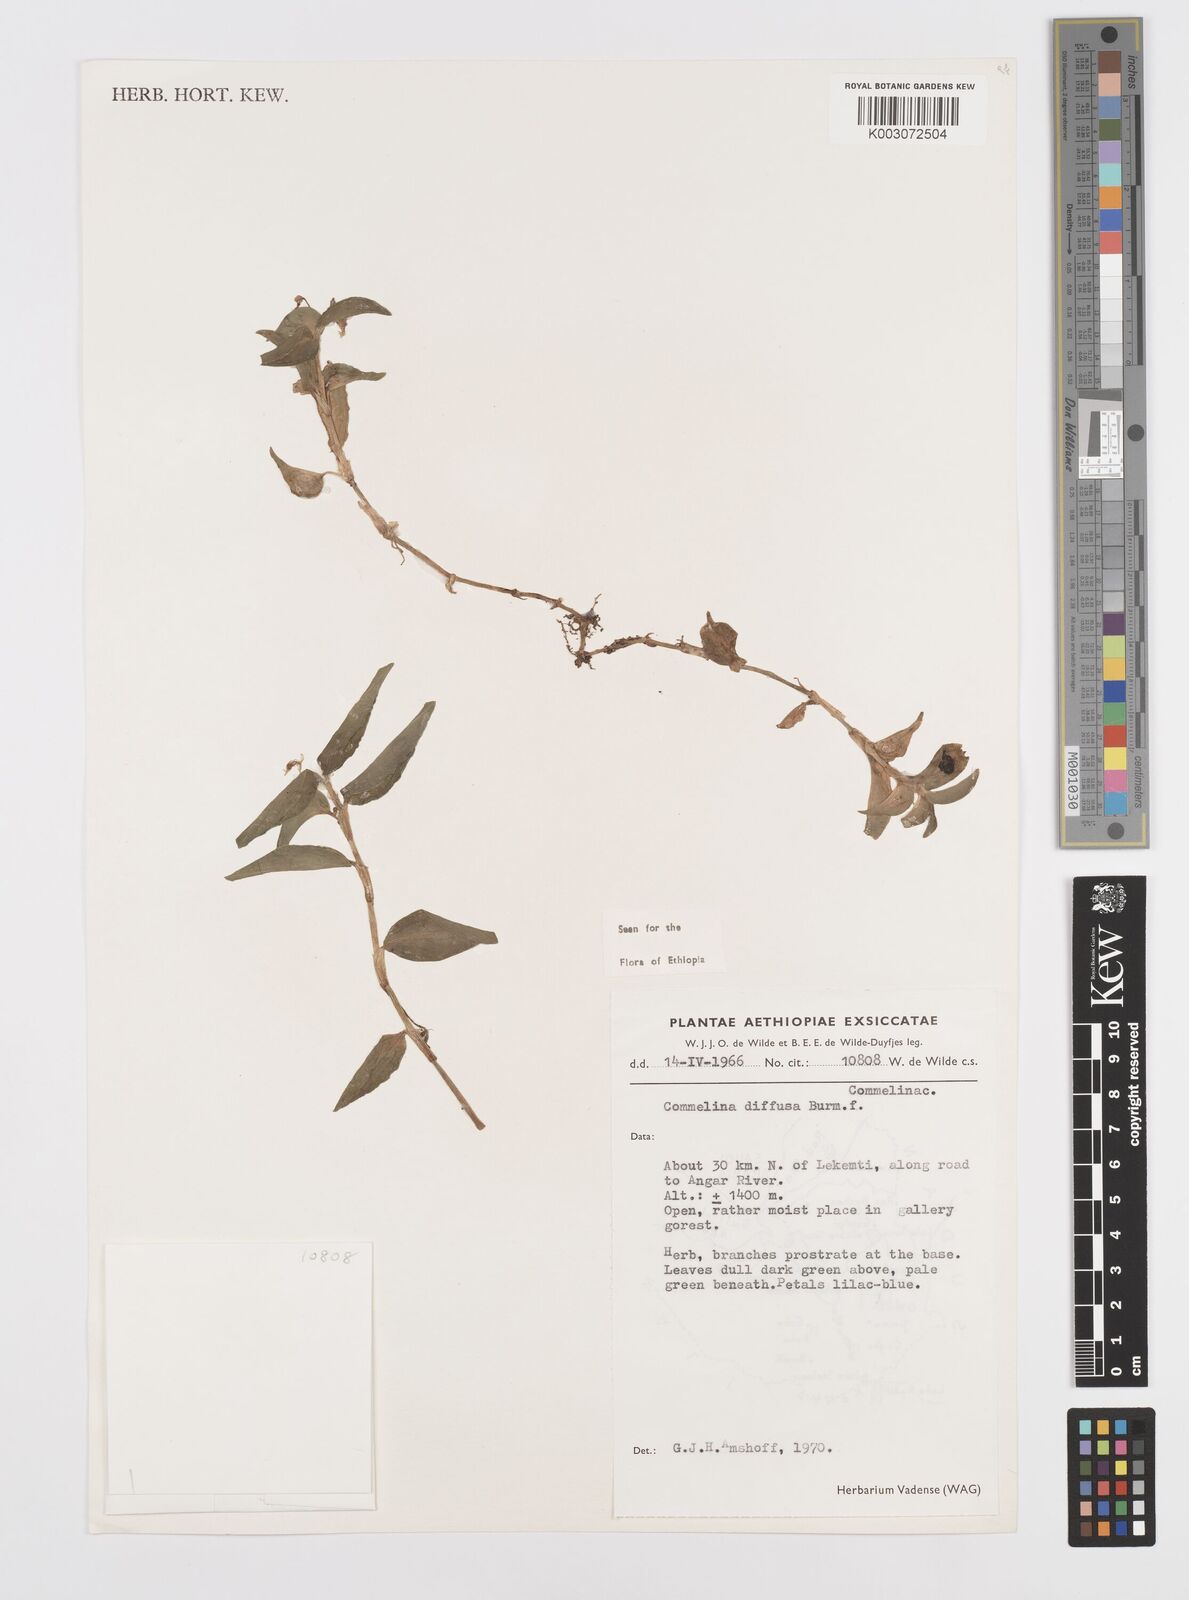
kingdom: Plantae
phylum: Tracheophyta
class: Liliopsida
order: Commelinales
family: Commelinaceae
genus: Commelina
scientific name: Commelina diffusa
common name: Climbing dayflower
